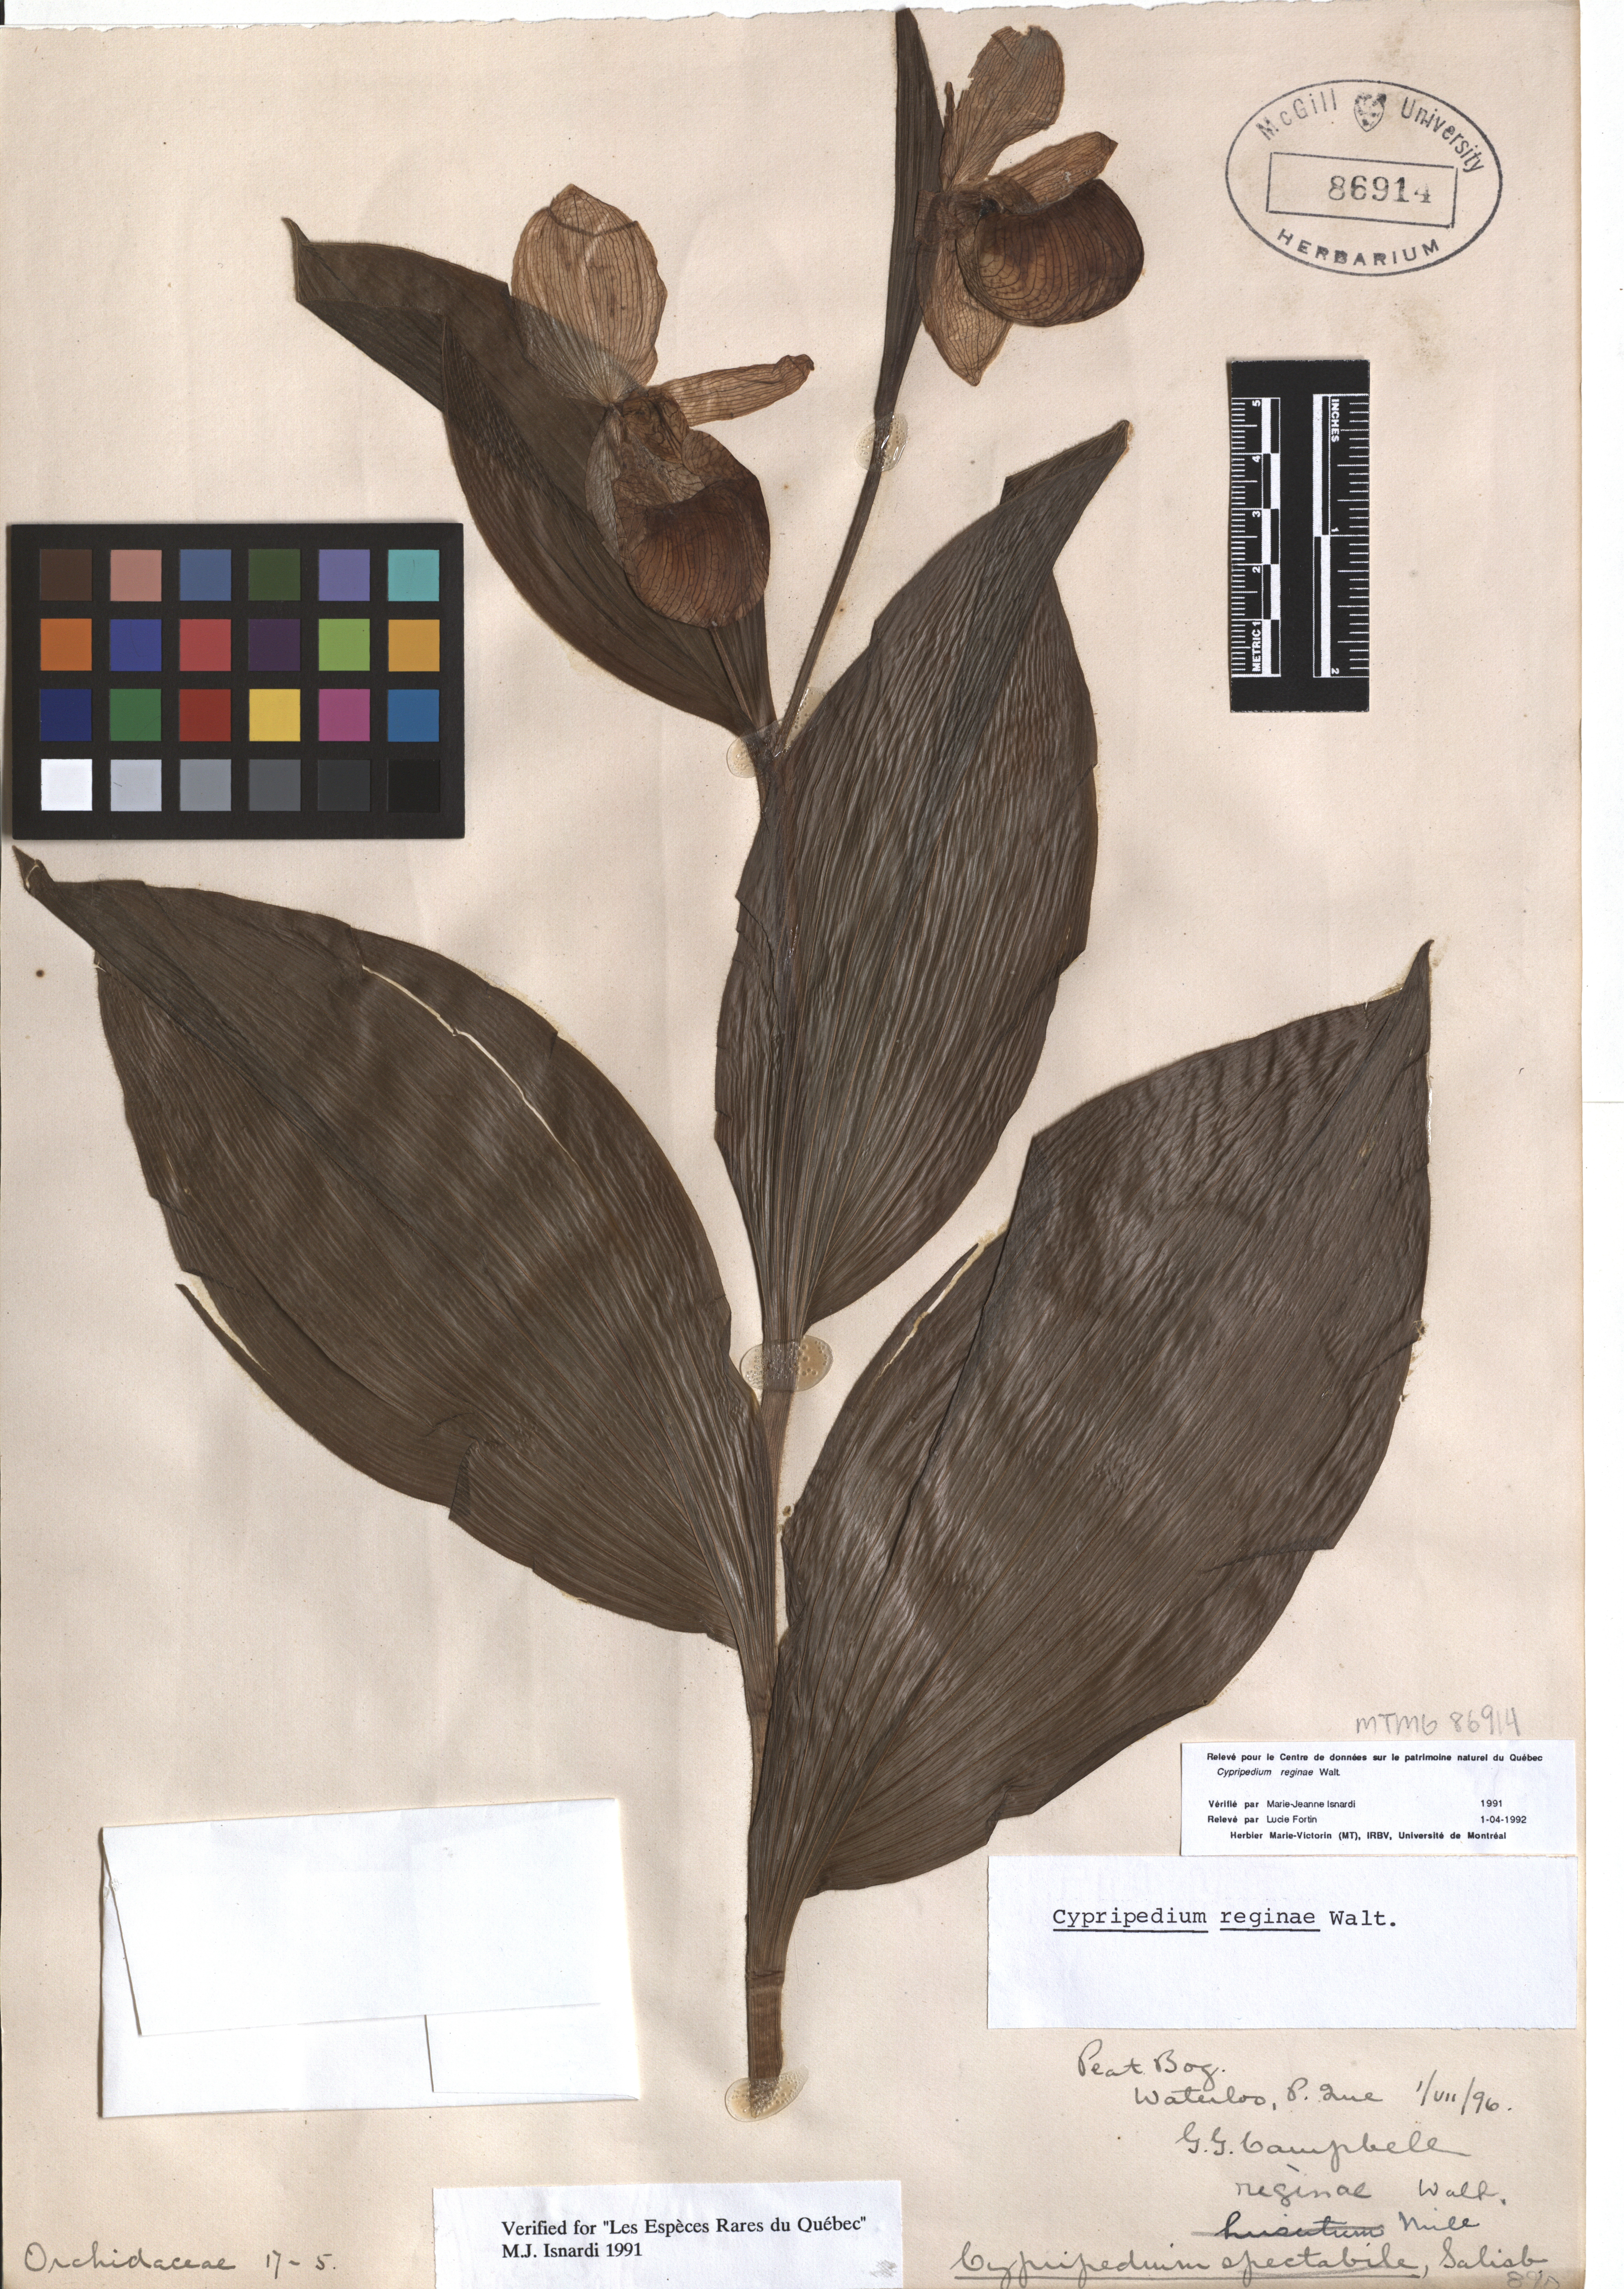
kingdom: Plantae
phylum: Tracheophyta
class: Liliopsida
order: Asparagales
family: Orchidaceae
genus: Cypripedium
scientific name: Cypripedium reginae
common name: Queen lady's-slipper
